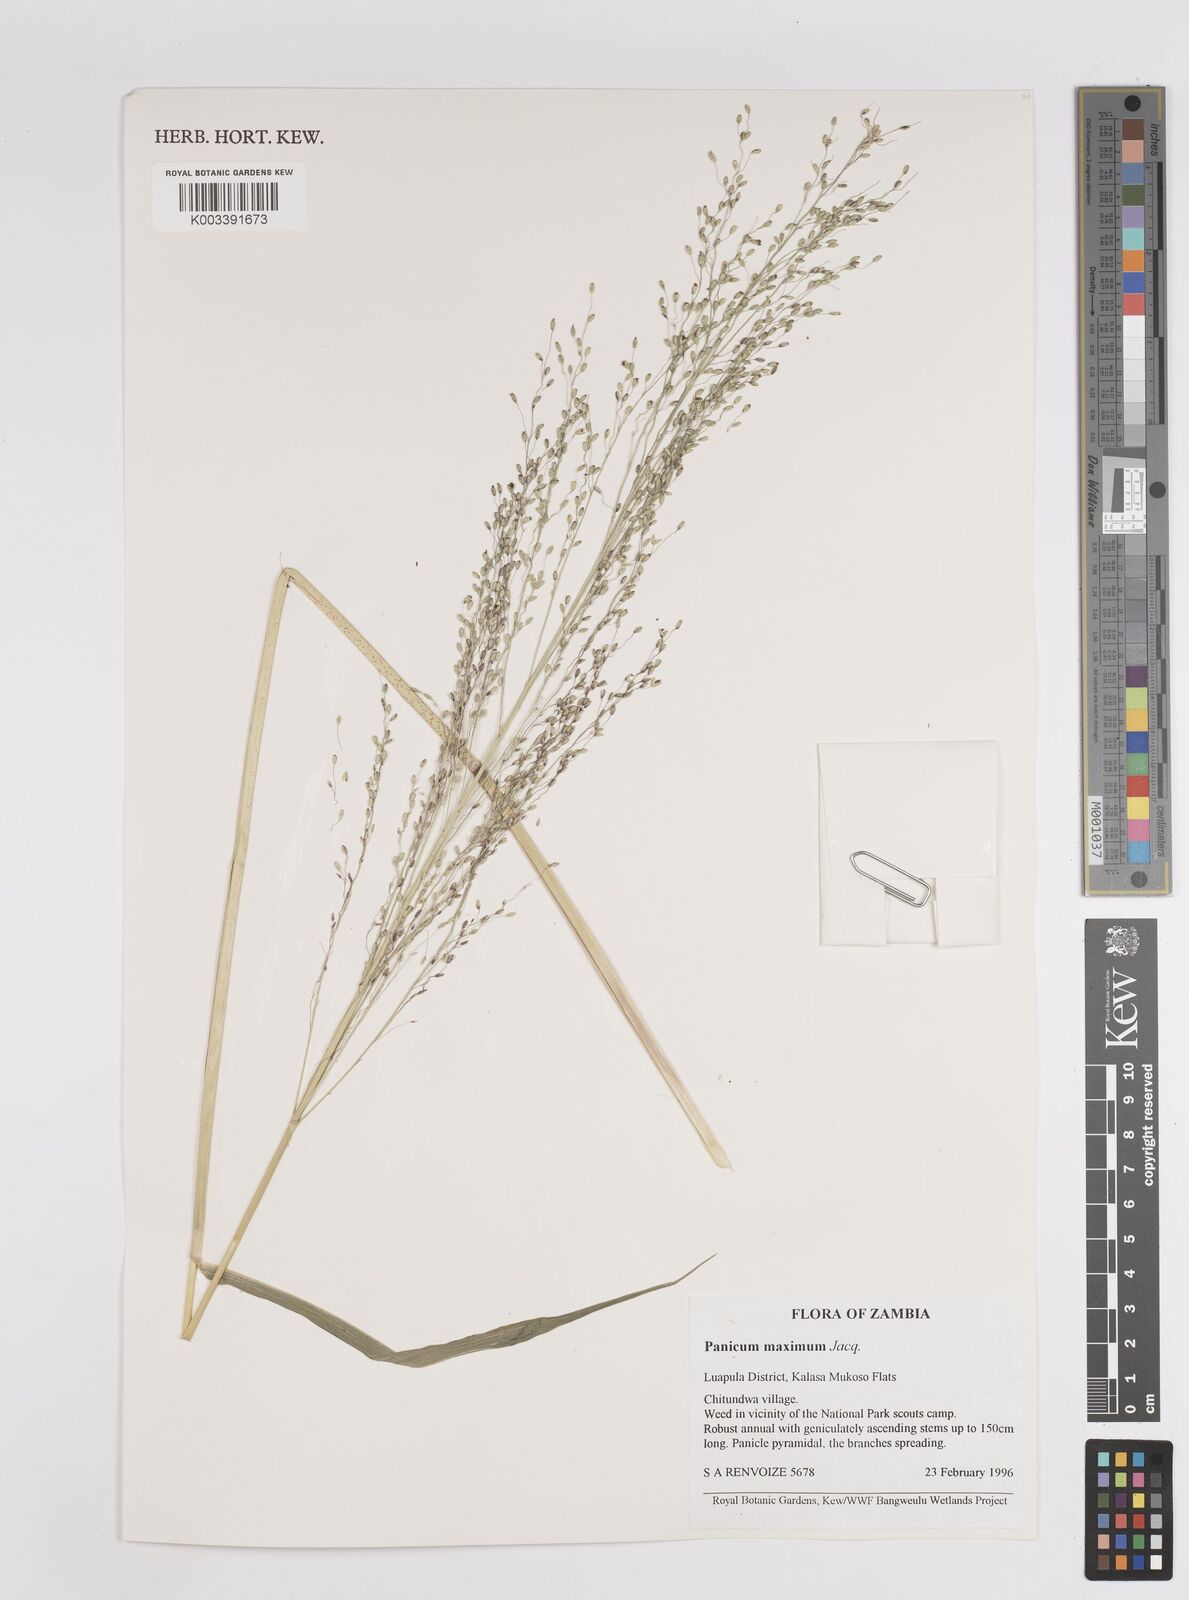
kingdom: Plantae
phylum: Tracheophyta
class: Liliopsida
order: Poales
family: Poaceae
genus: Megathyrsus
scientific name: Megathyrsus maximus
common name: Guineagrass
